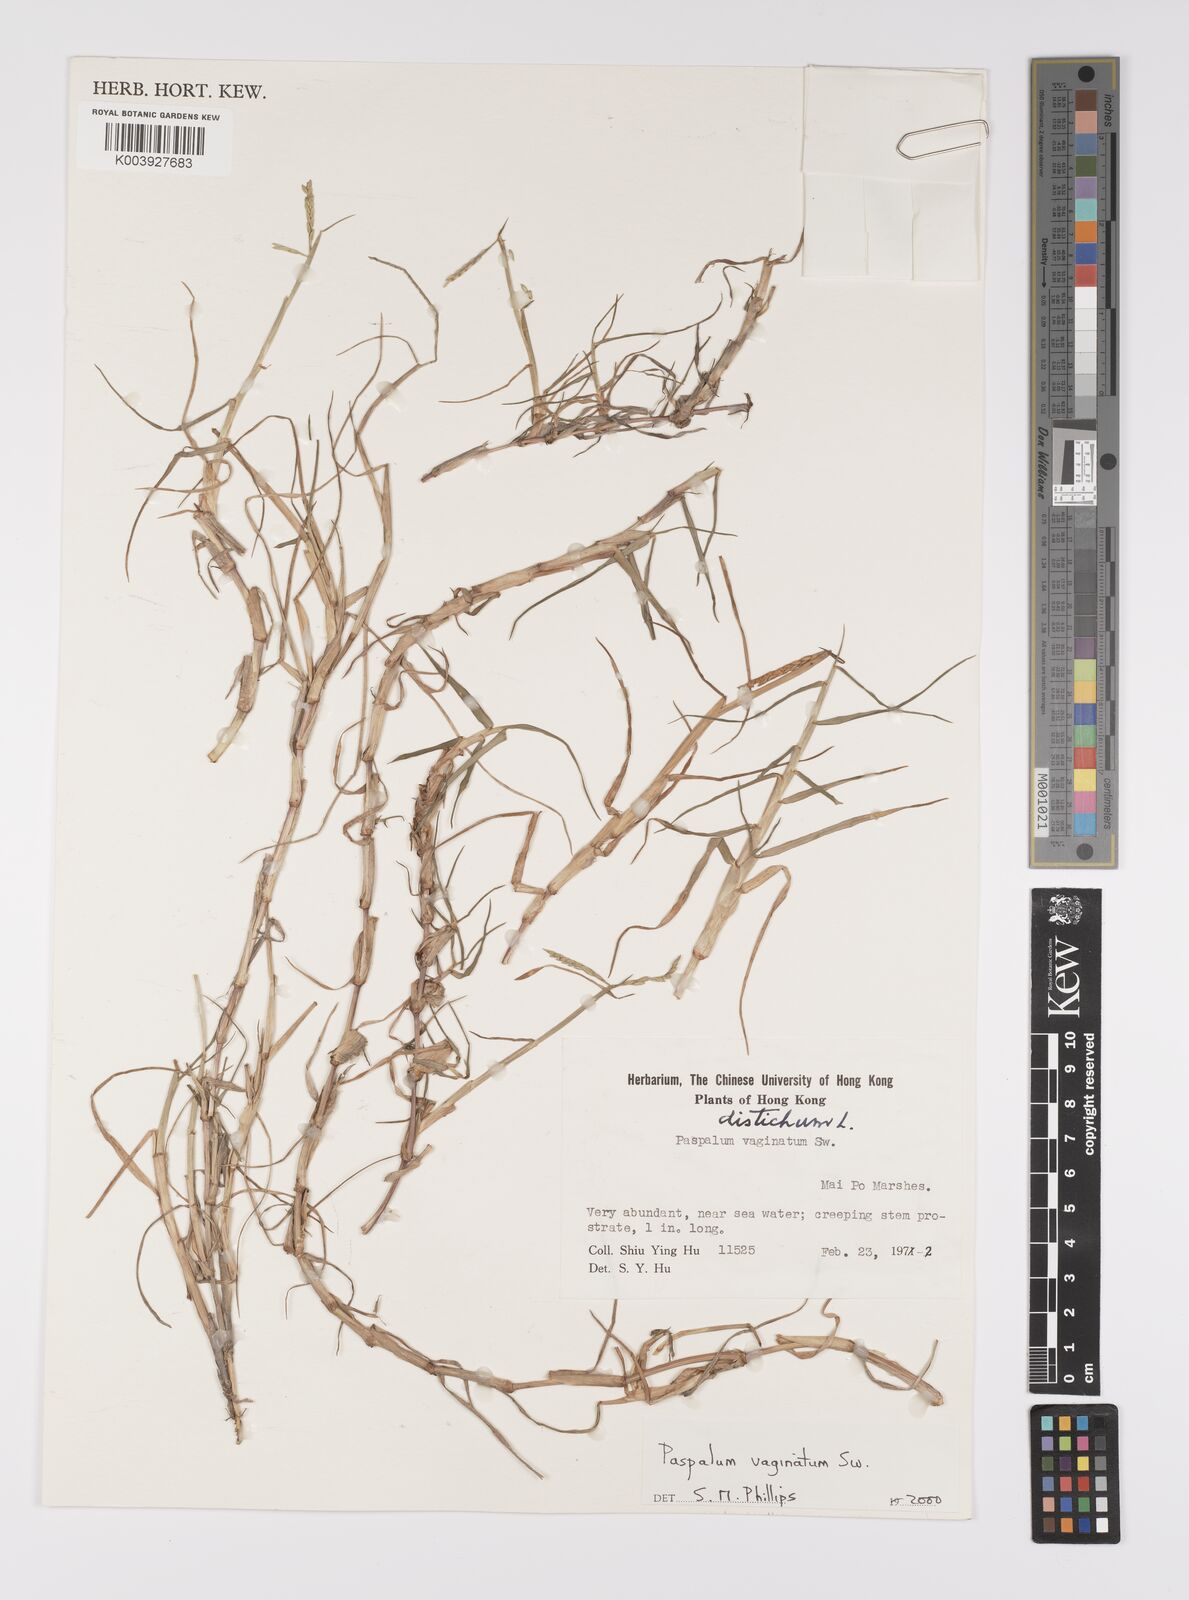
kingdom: Plantae
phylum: Tracheophyta
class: Liliopsida
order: Poales
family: Poaceae
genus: Paspalum
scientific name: Paspalum vaginatum
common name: Seashore paspalum
